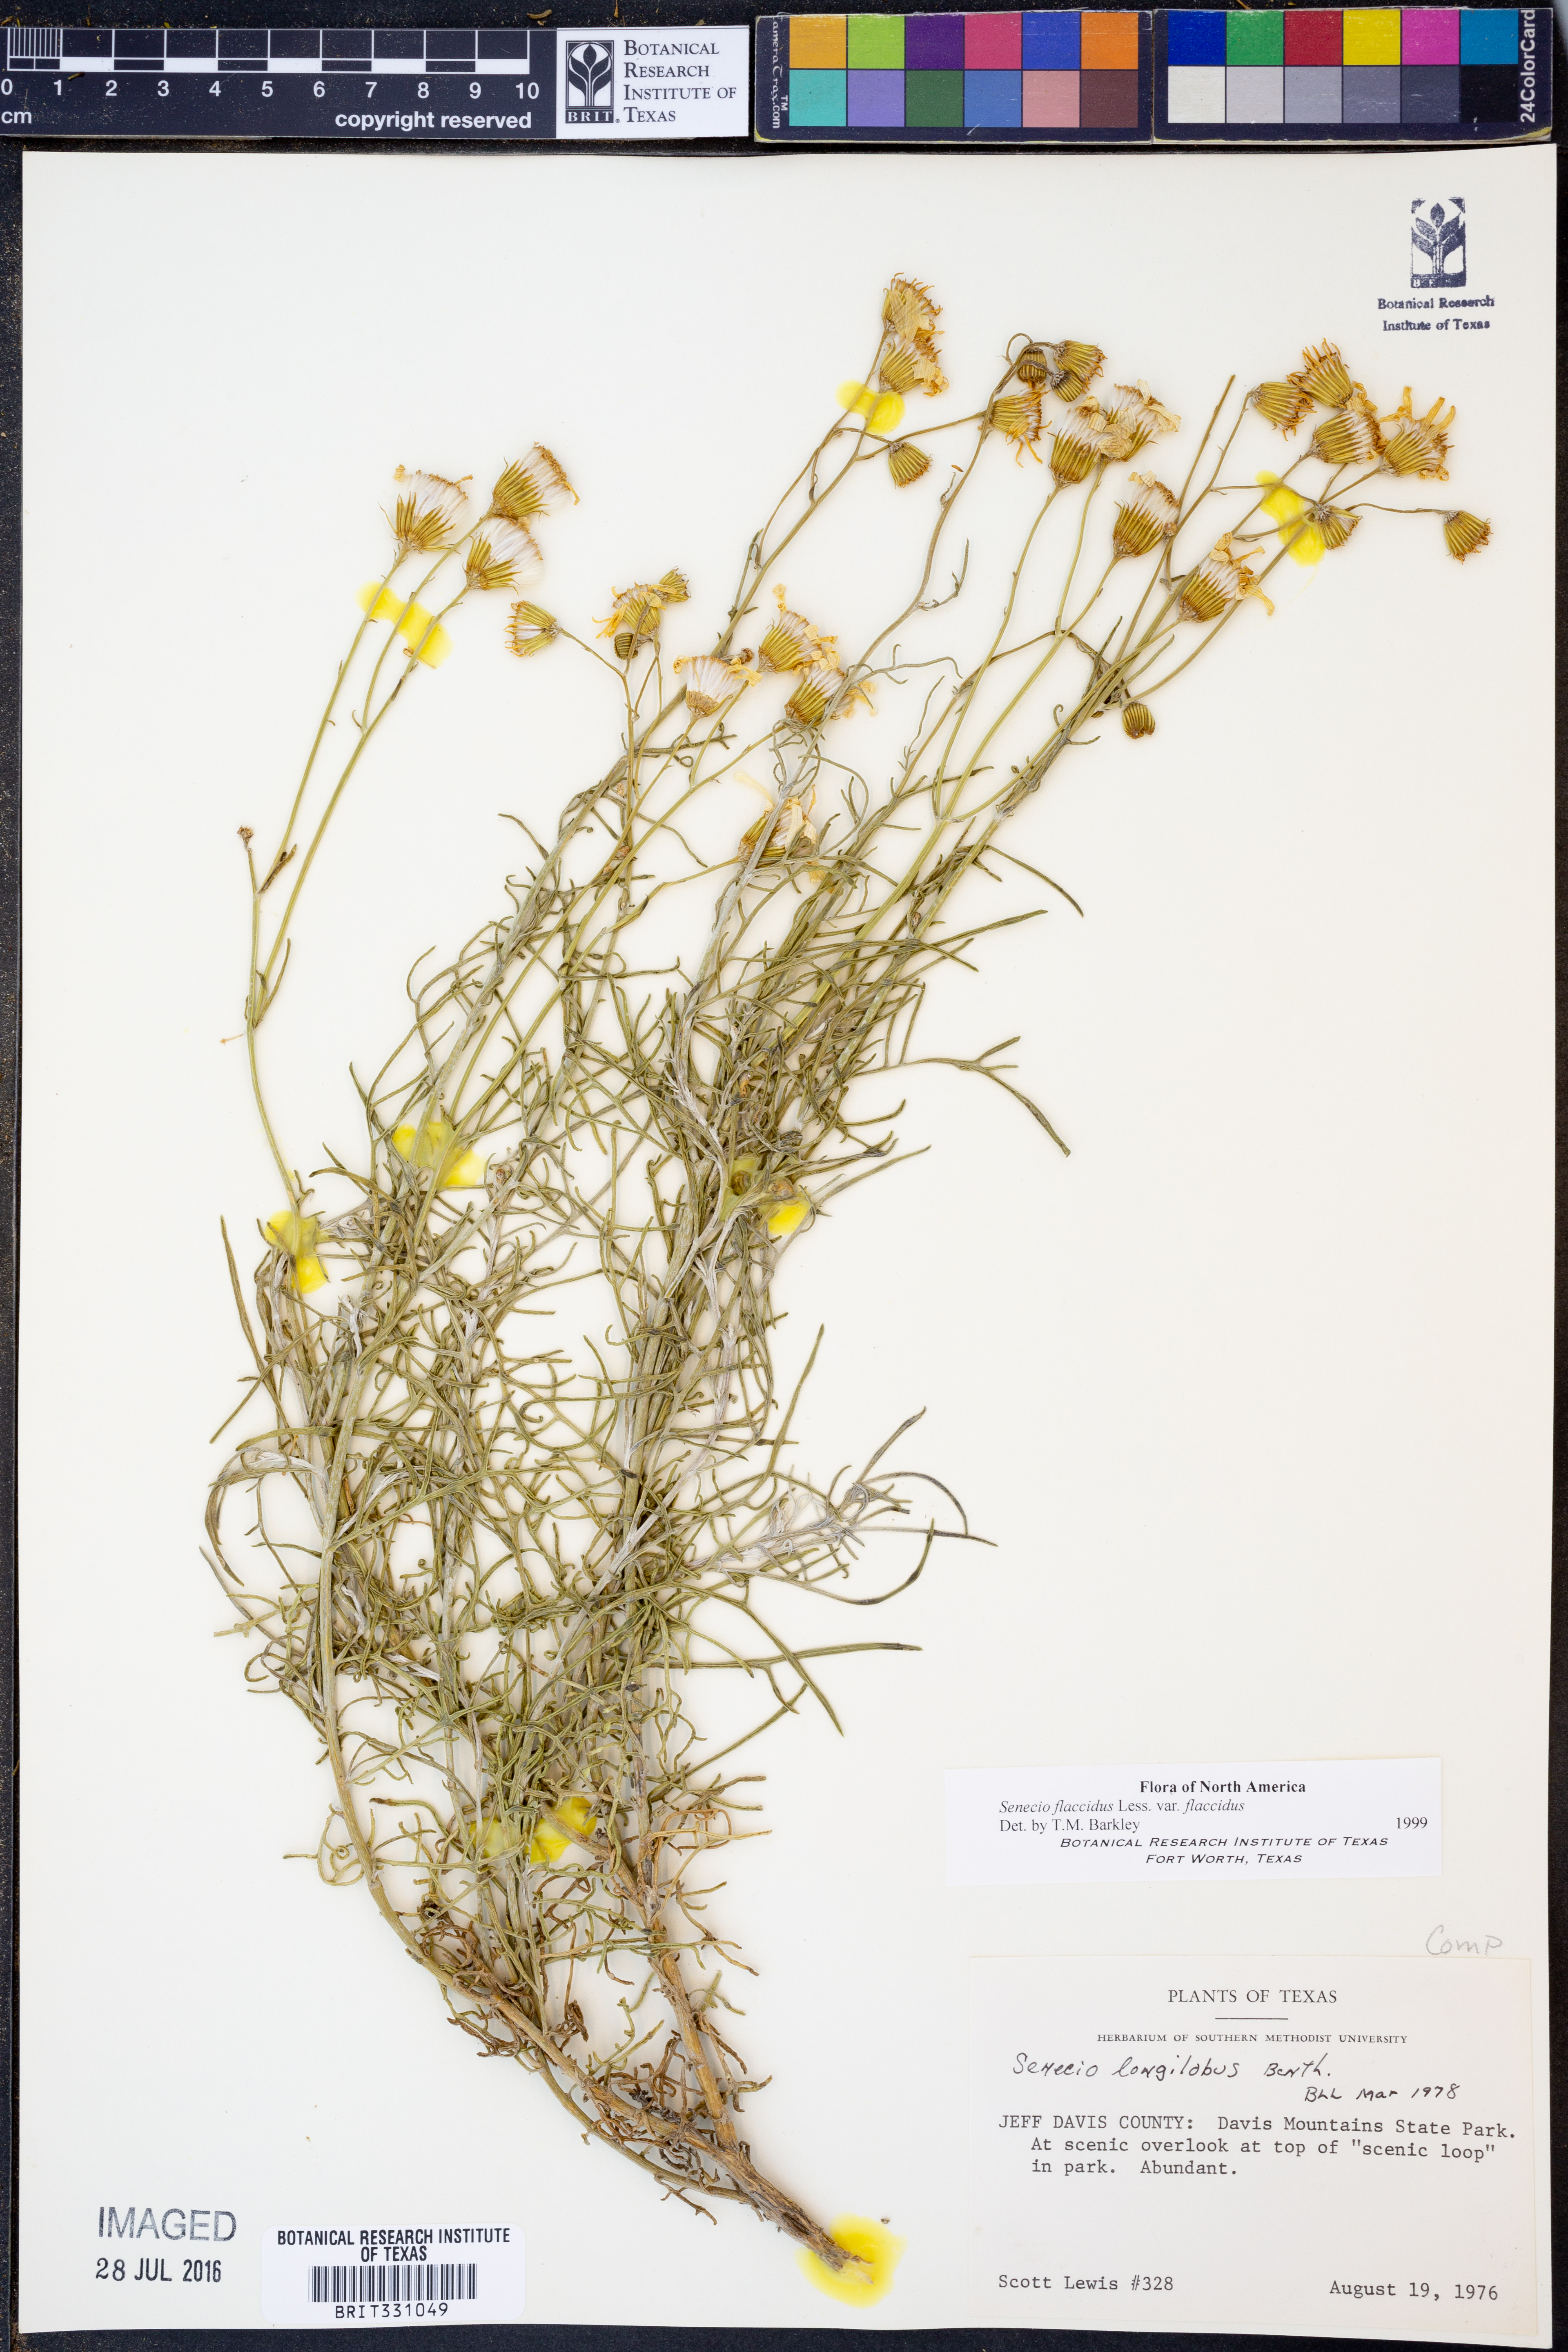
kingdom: Plantae
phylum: Tracheophyta
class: Magnoliopsida
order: Asterales
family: Asteraceae
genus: Senecio
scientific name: Senecio flaccidus
